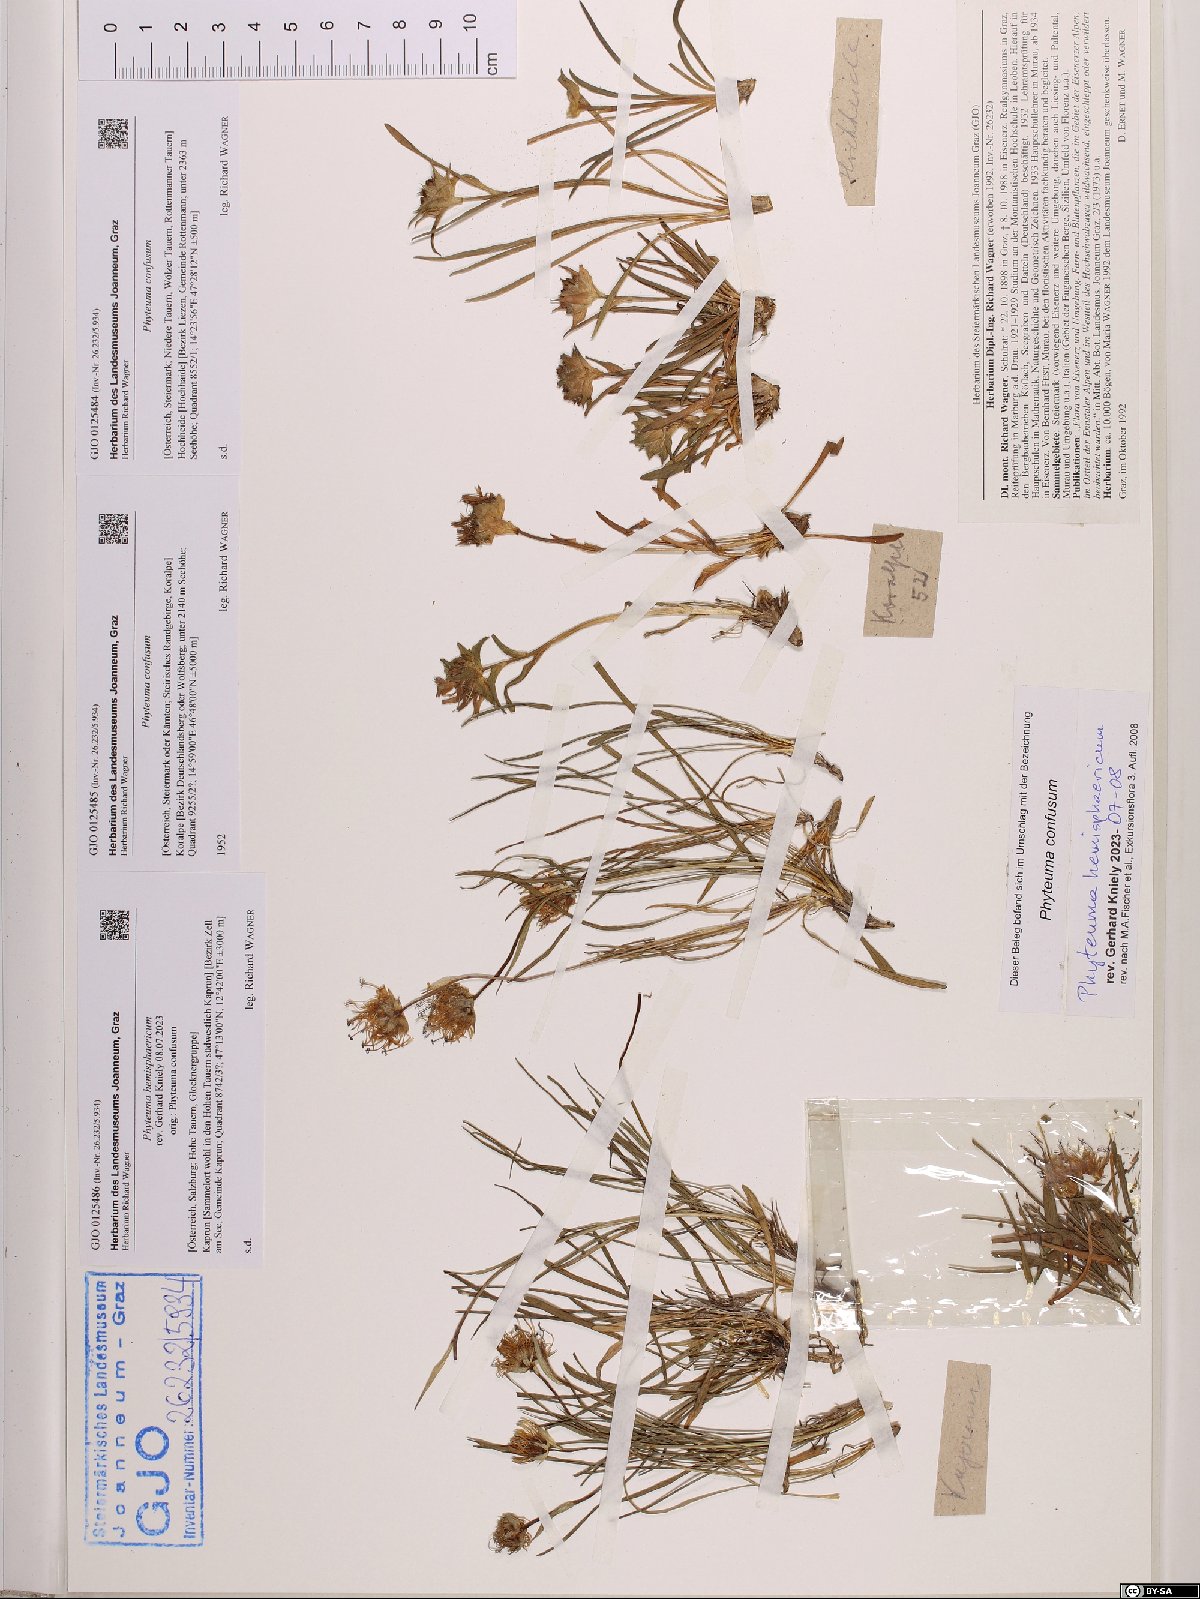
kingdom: Plantae
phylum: Tracheophyta
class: Magnoliopsida
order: Asterales
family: Campanulaceae
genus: Phyteuma
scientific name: Phyteuma confusum
